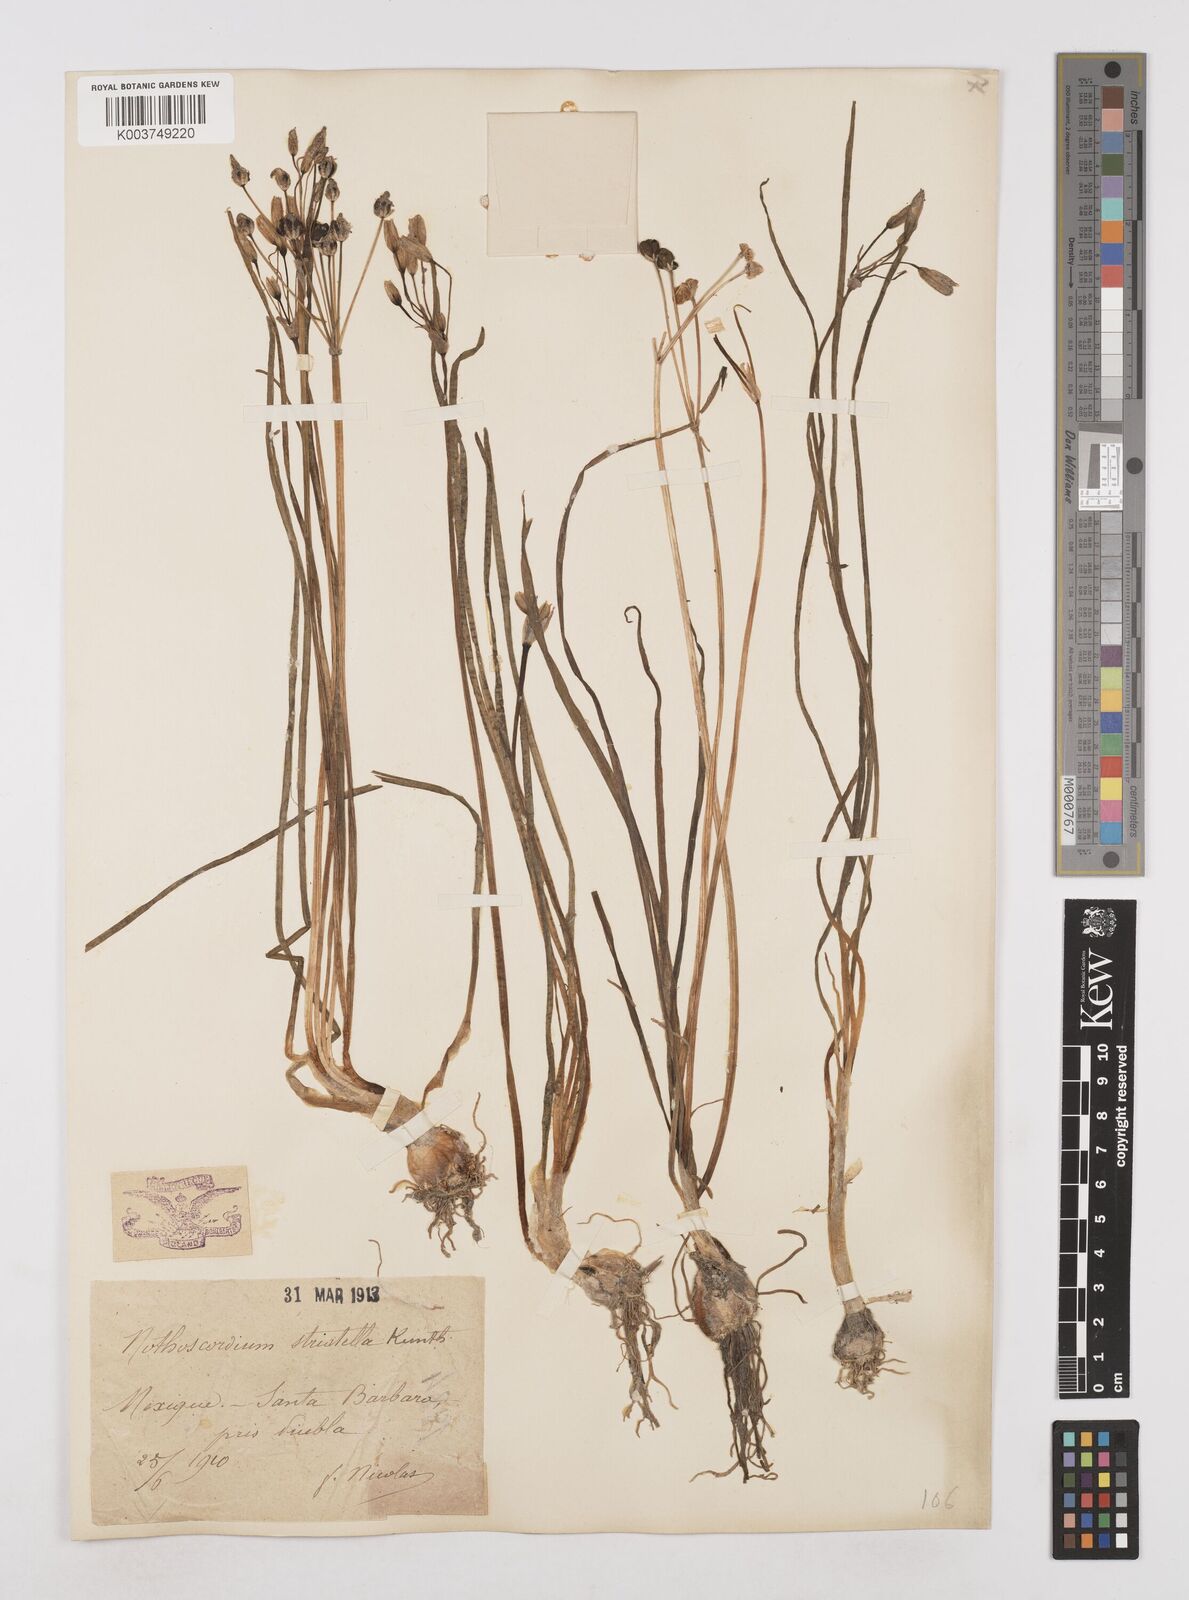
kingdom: Plantae
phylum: Tracheophyta
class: Liliopsida
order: Asparagales
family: Amaryllidaceae
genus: Nothoscordum
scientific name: Nothoscordum bivalve
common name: Crow-poison
